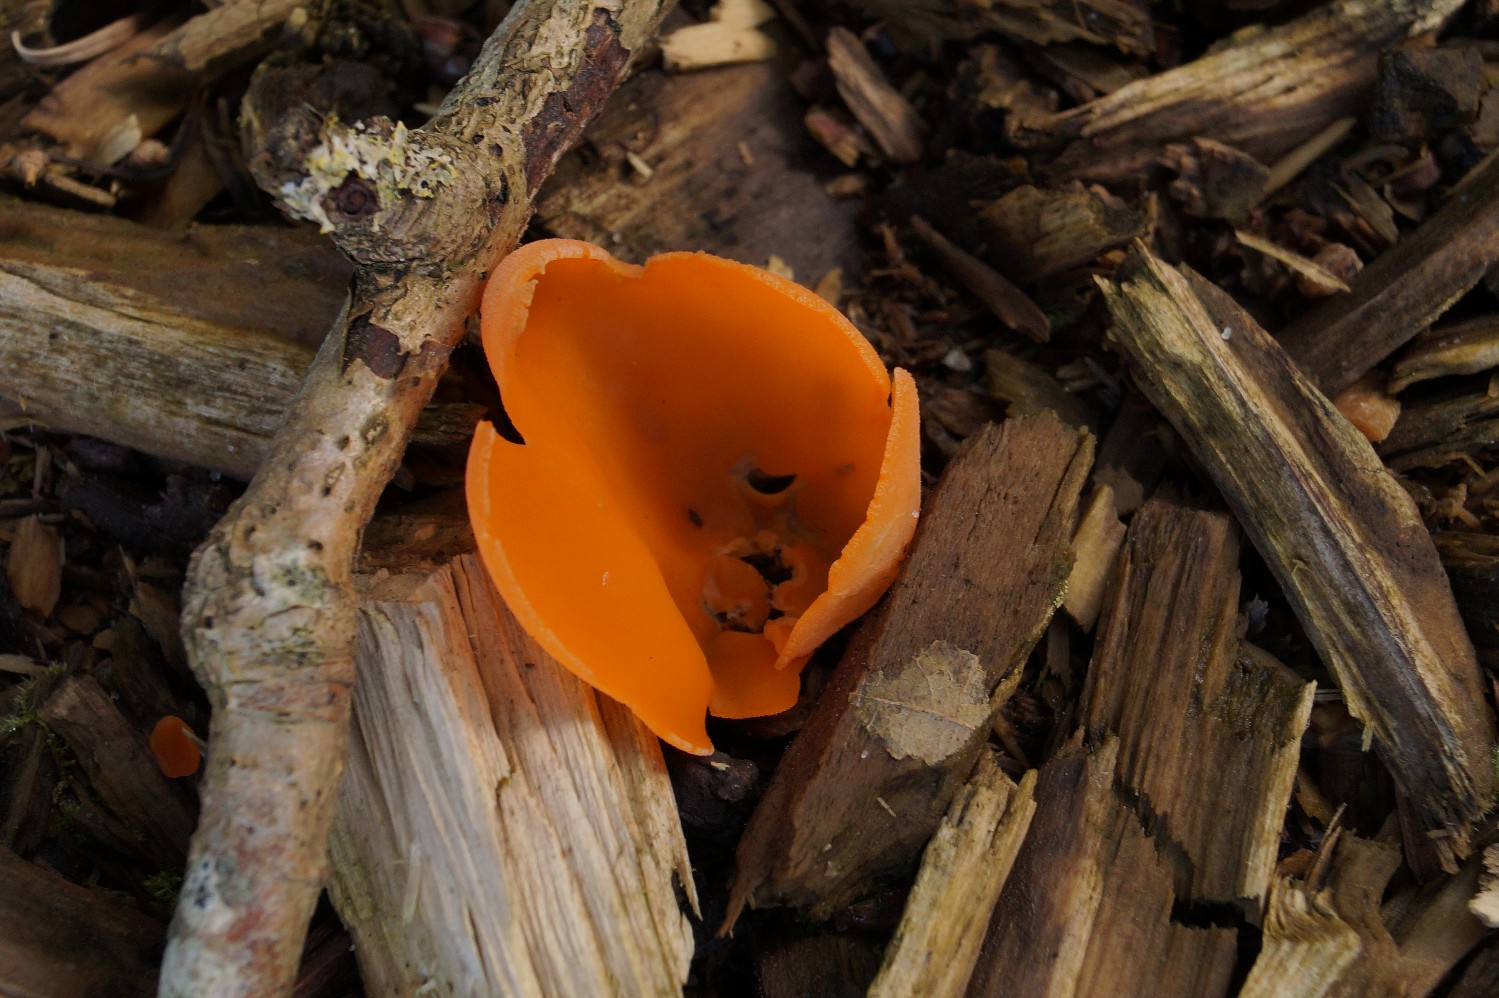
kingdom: Fungi
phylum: Ascomycota
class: Pezizomycetes
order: Pezizales
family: Pyronemataceae
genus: Aleuria
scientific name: Aleuria aurantia
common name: almindelig orangebæger
